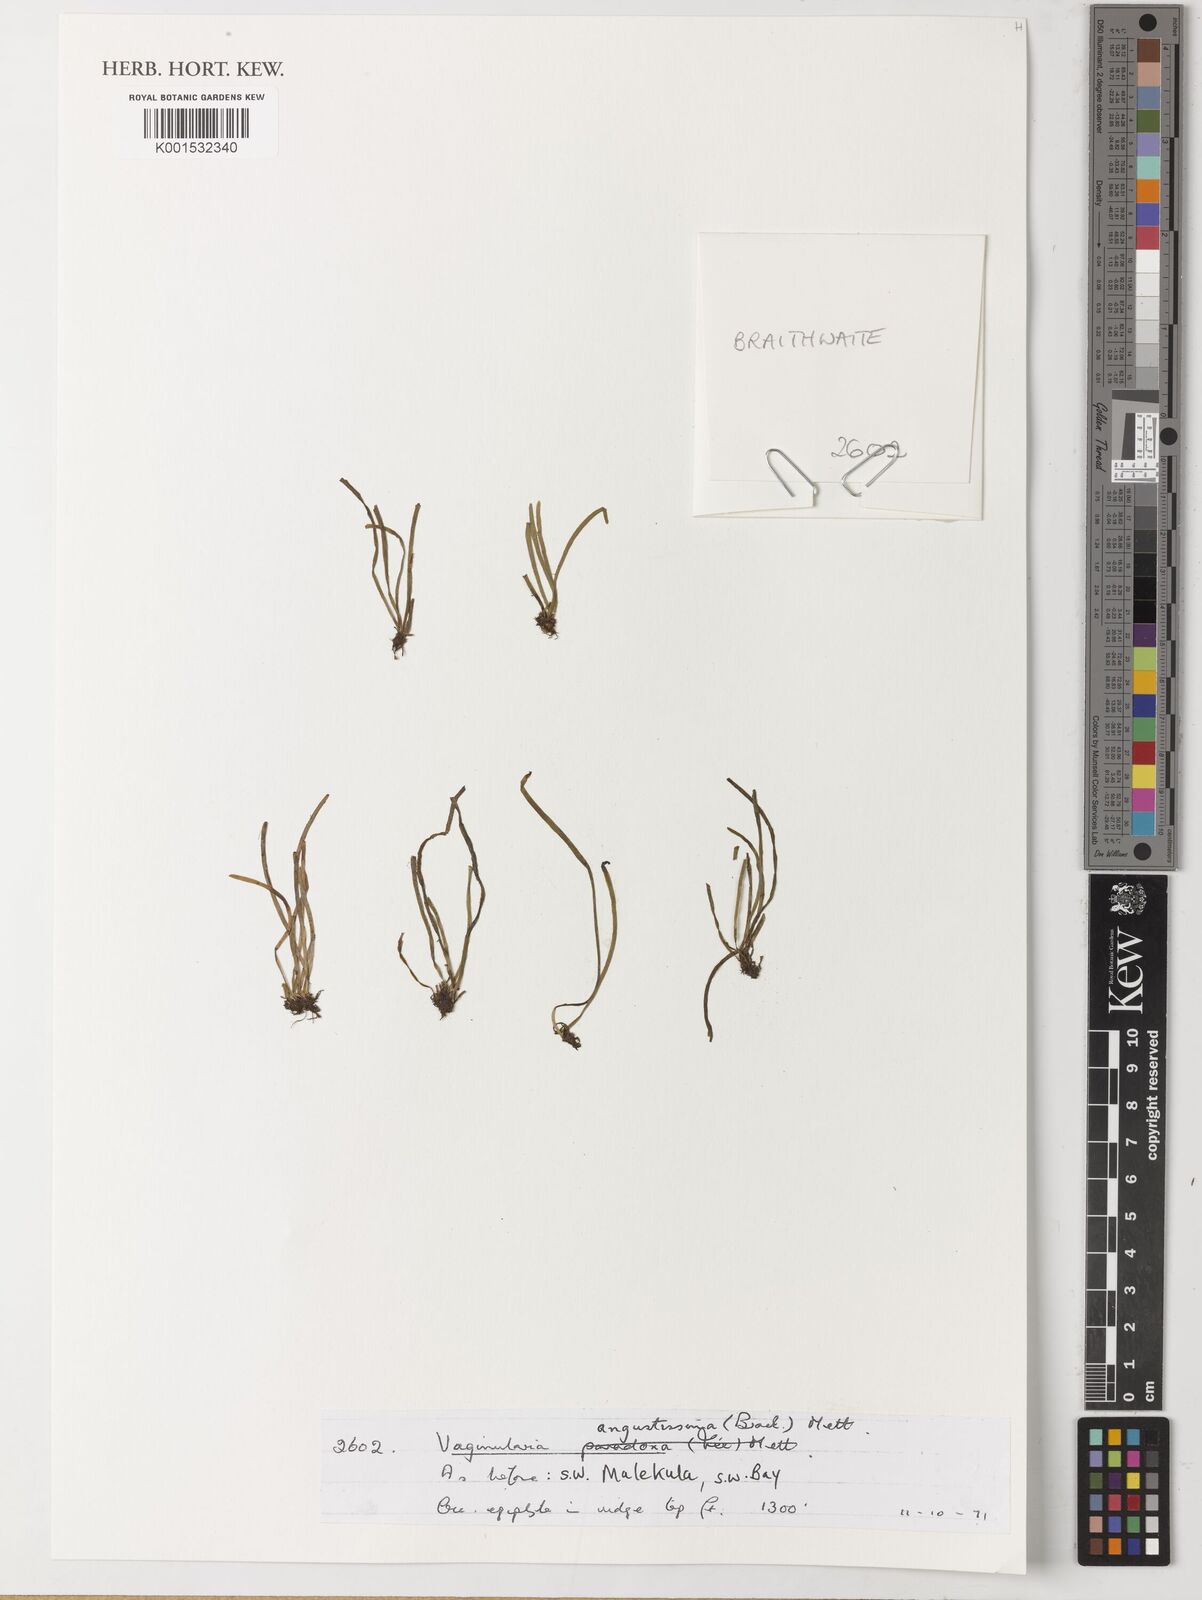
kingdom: Plantae
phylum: Tracheophyta
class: Polypodiopsida
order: Polypodiales
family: Pteridaceae
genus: Vaginularia
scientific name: Vaginularia junghuhnii
